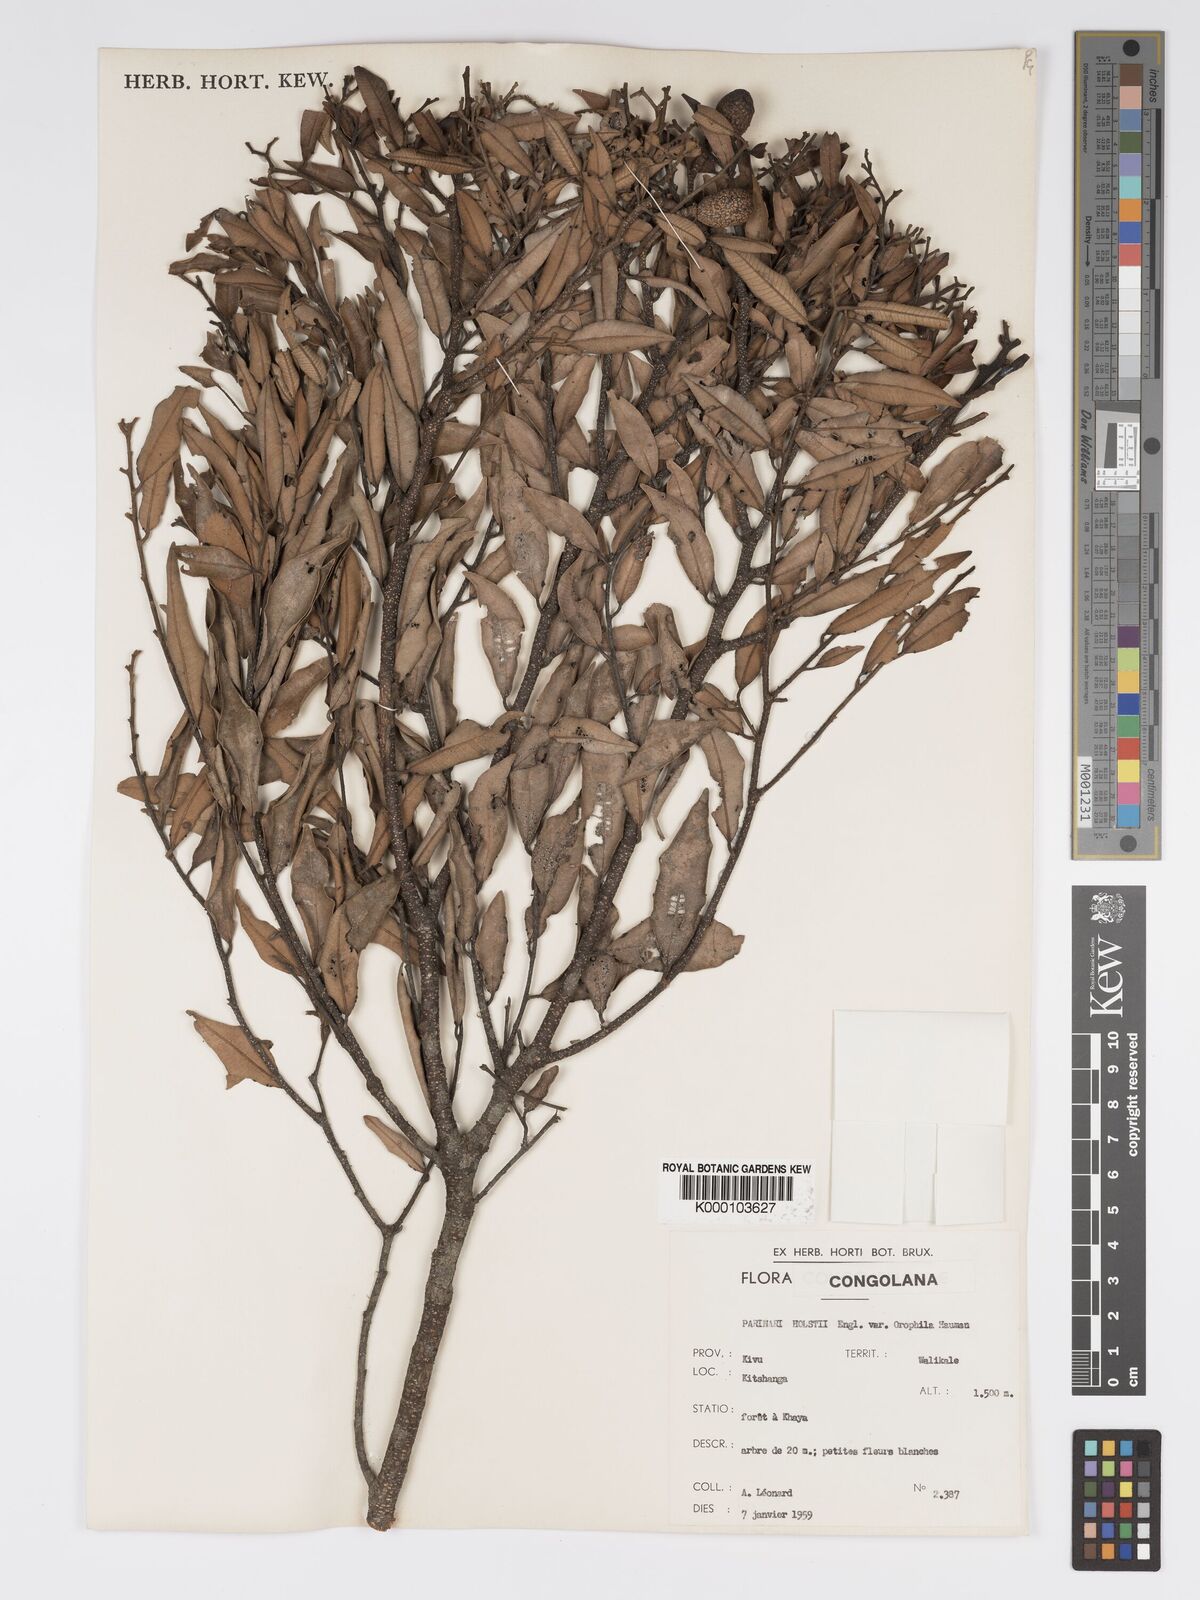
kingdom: Plantae
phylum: Tracheophyta
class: Magnoliopsida
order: Malpighiales
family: Chrysobalanaceae
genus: Parinari
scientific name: Parinari excelsa
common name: Guinea-plum
